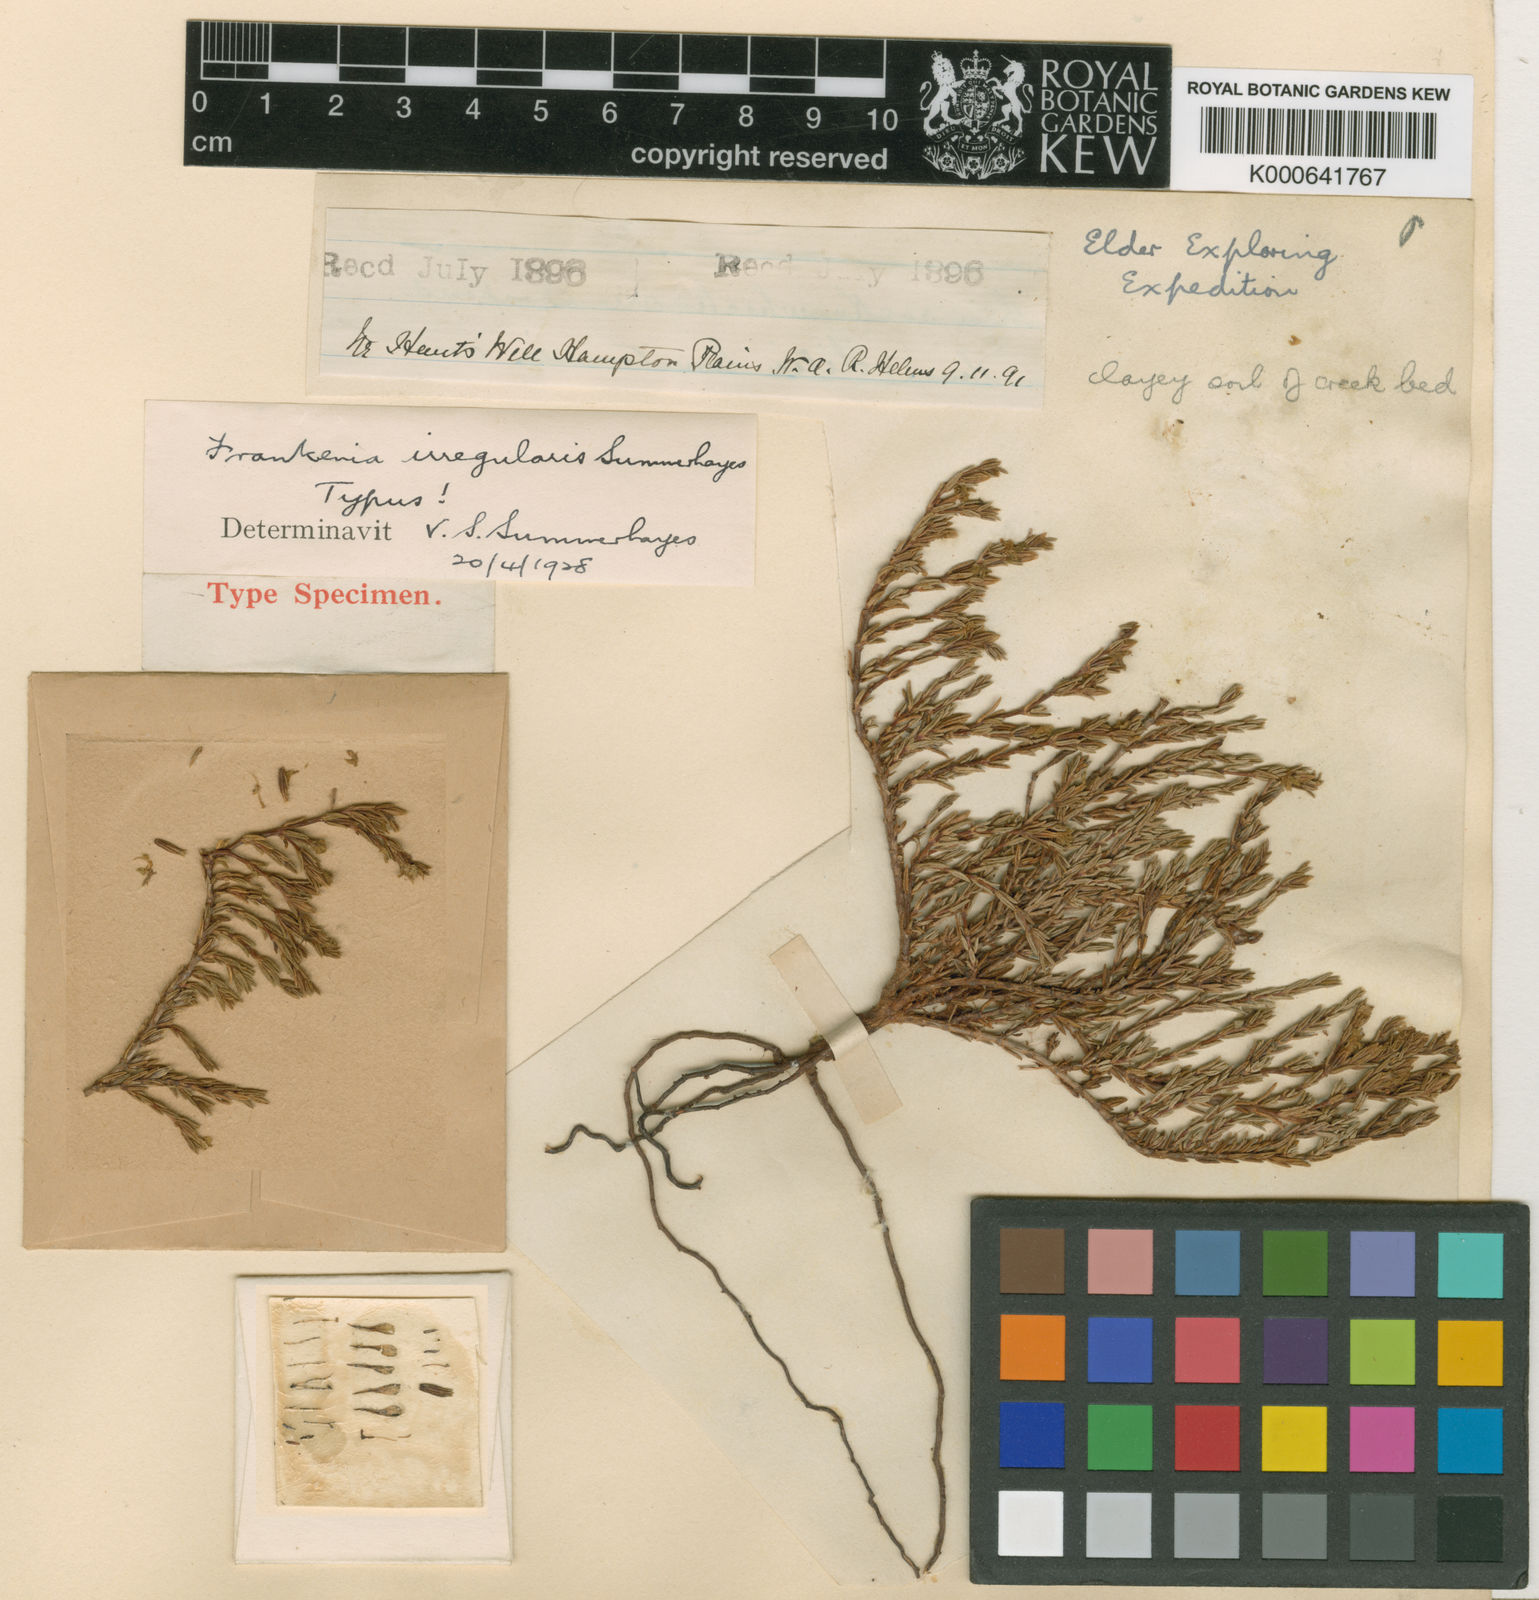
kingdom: Plantae
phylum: Tracheophyta
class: Magnoliopsida
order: Caryophyllales
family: Frankeniaceae
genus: Frankenia
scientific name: Frankenia irregularis
